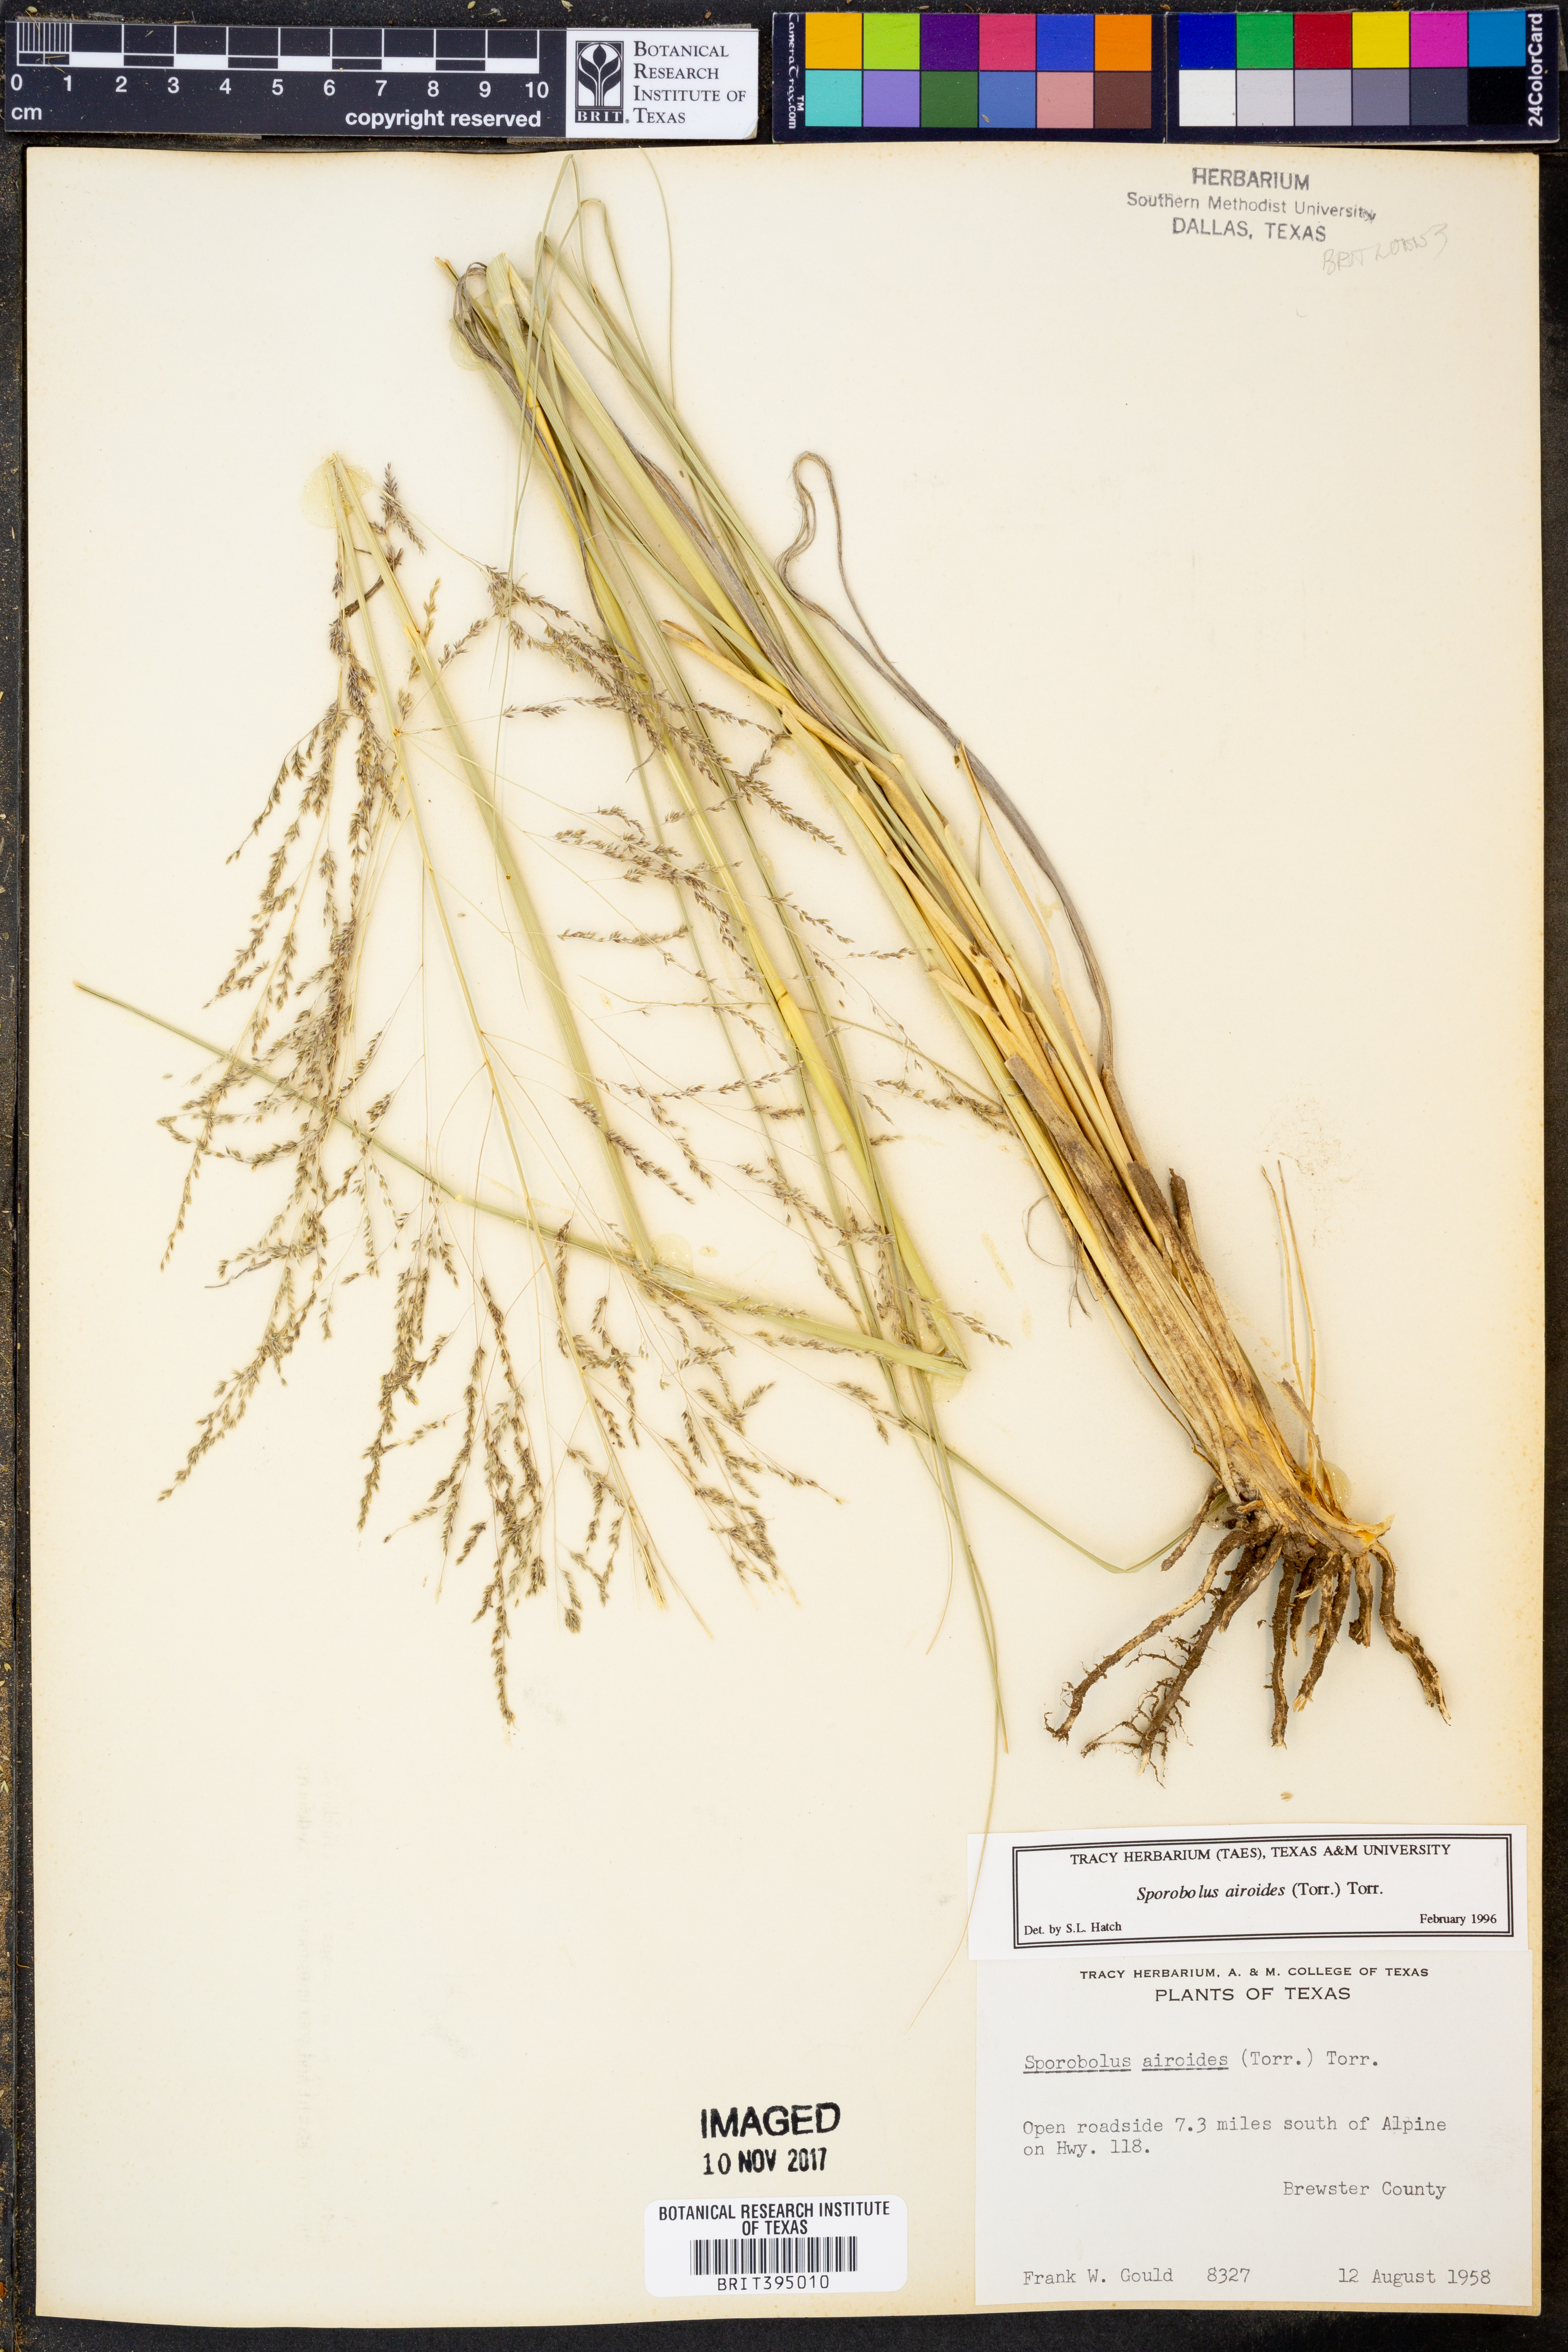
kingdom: Plantae
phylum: Tracheophyta
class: Liliopsida
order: Poales
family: Poaceae
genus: Sporobolus
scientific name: Sporobolus airoides
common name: Alkali sacaton
